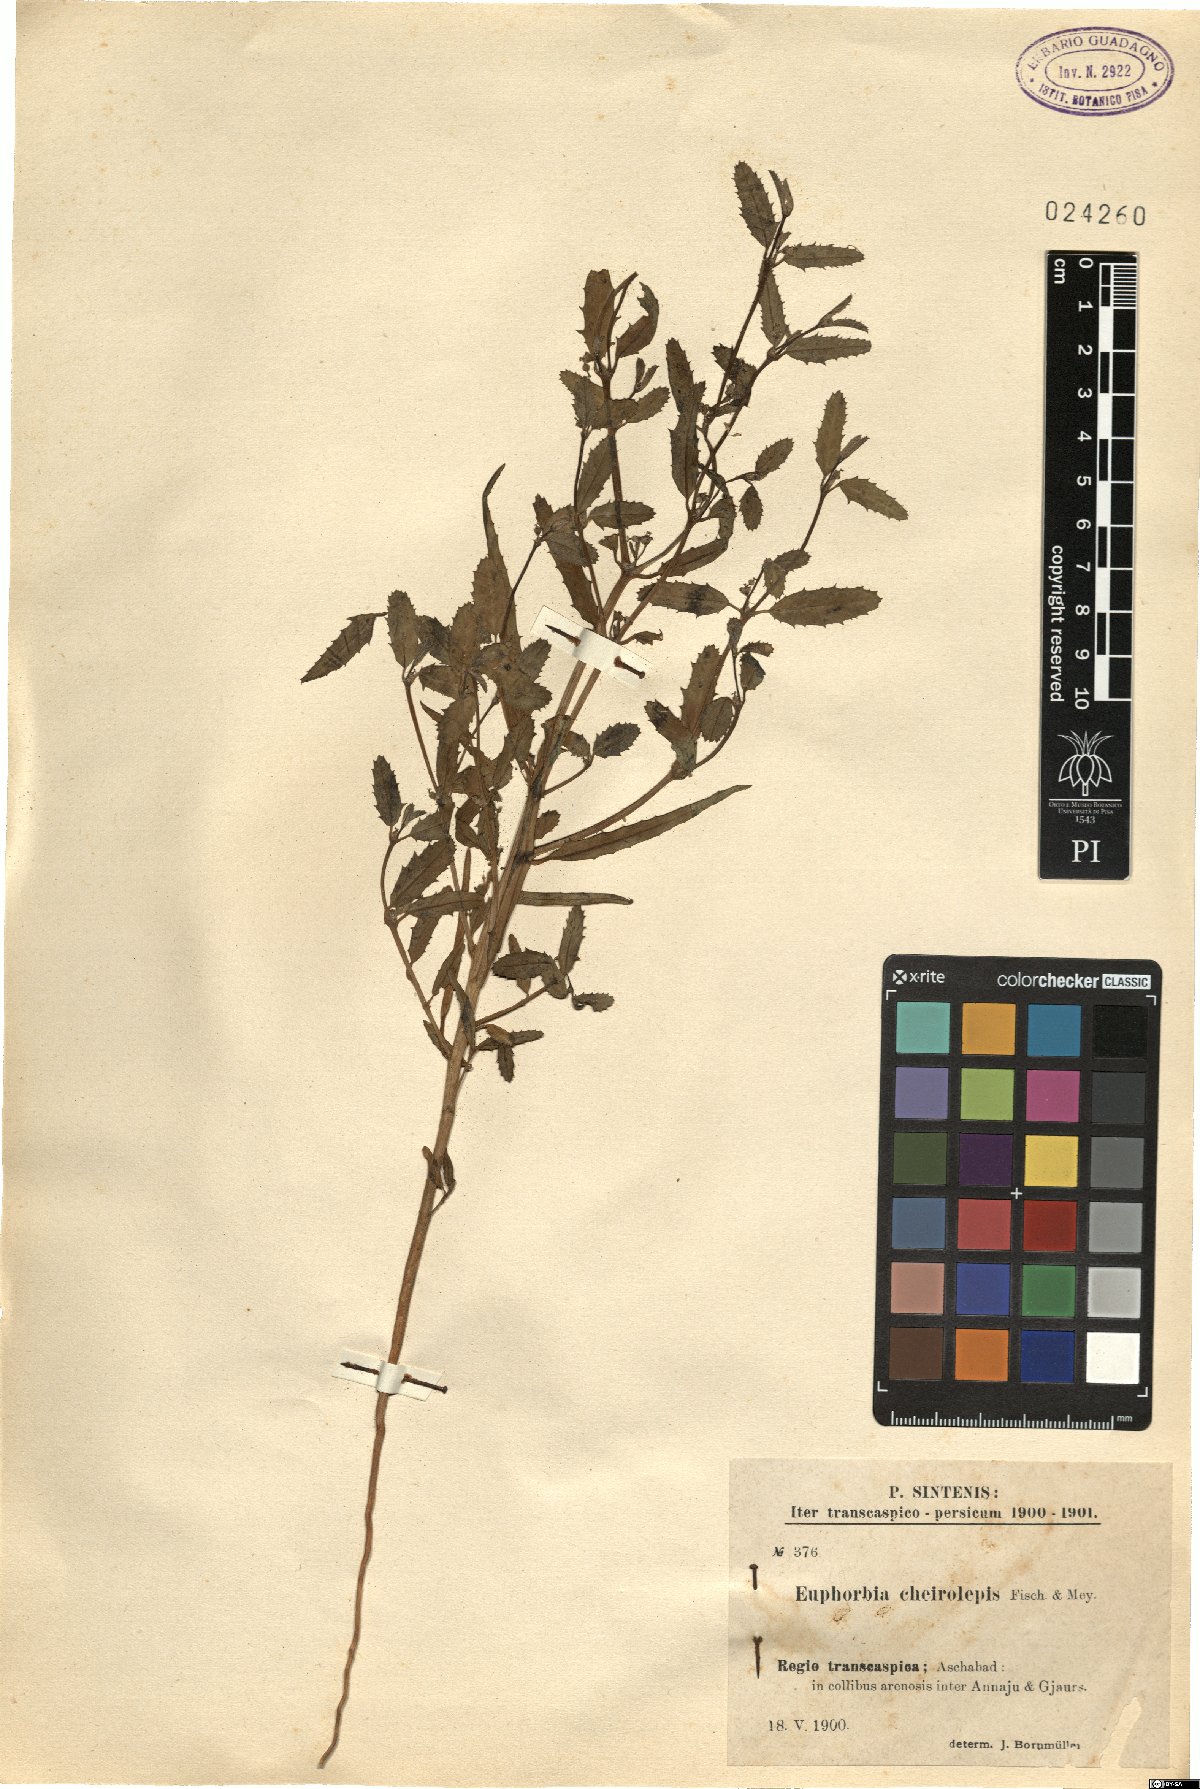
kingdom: Plantae
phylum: Tracheophyta
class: Magnoliopsida
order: Malpighiales
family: Euphorbiaceae
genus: Euphorbia
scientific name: Euphorbia grossheimii
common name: Grossheim's spurge
